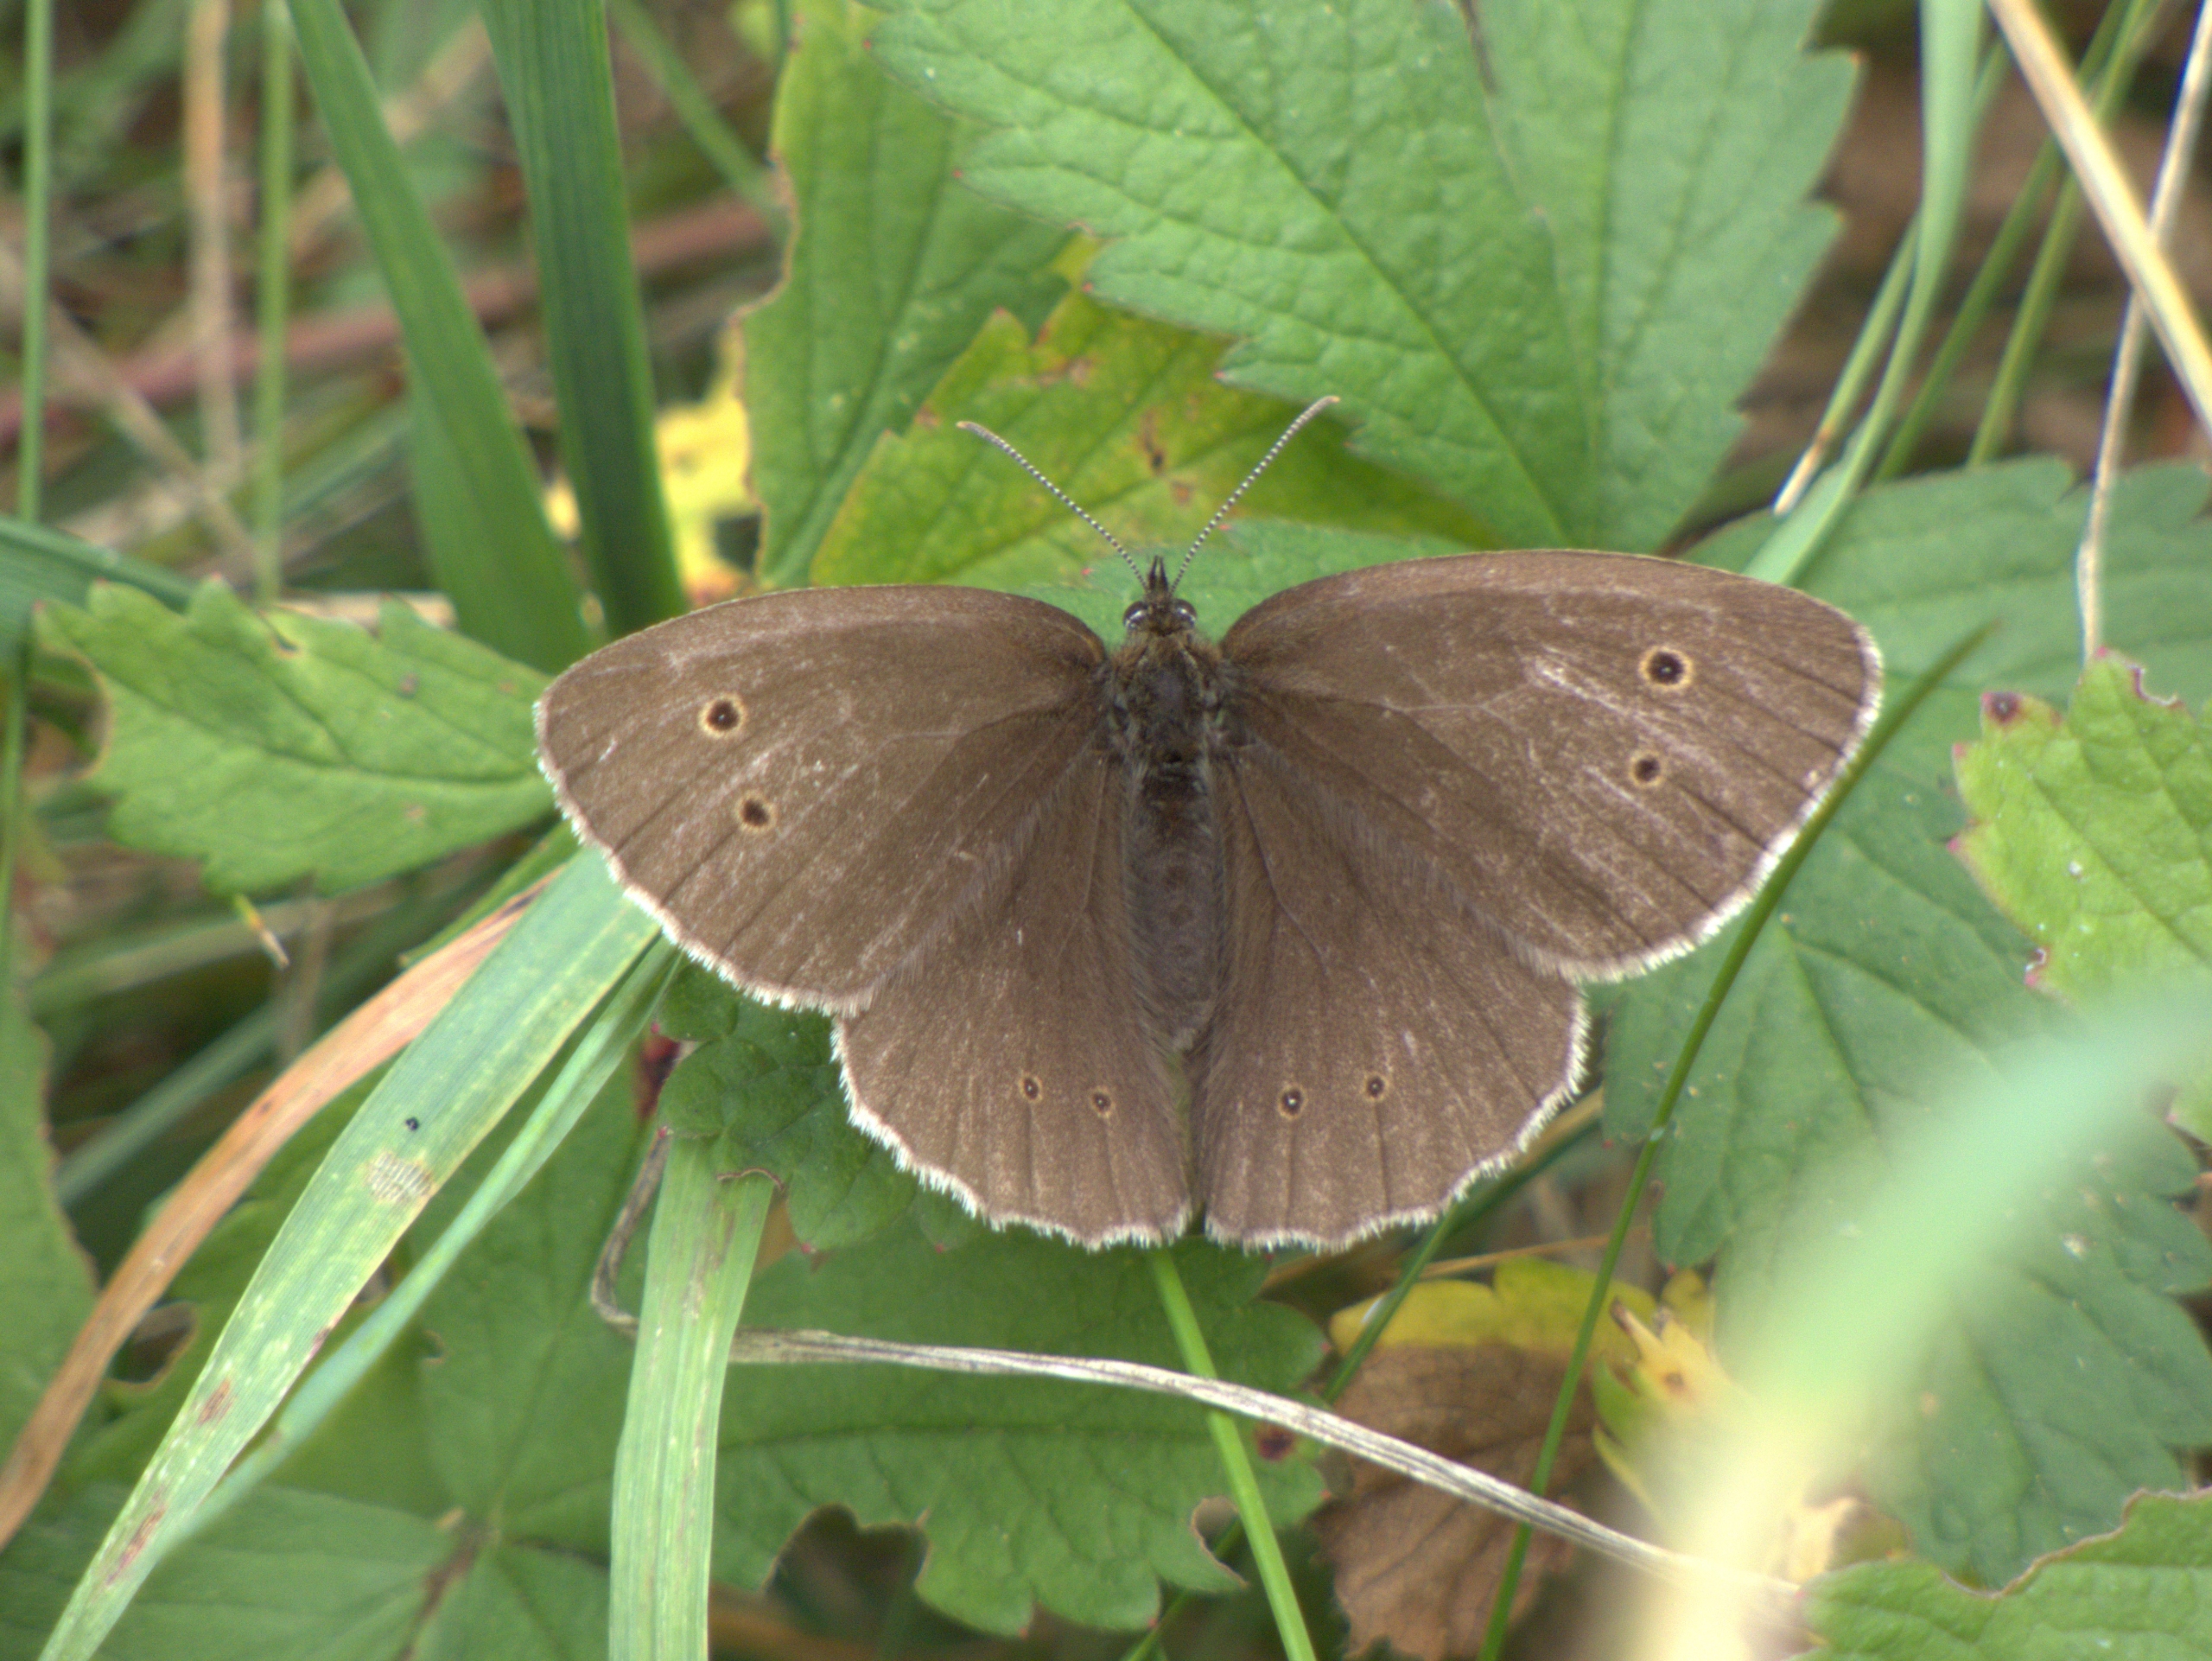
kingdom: Animalia
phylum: Arthropoda
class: Insecta
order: Lepidoptera
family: Nymphalidae
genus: Aphantopus
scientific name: Aphantopus hyperantus
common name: Engrandøje
